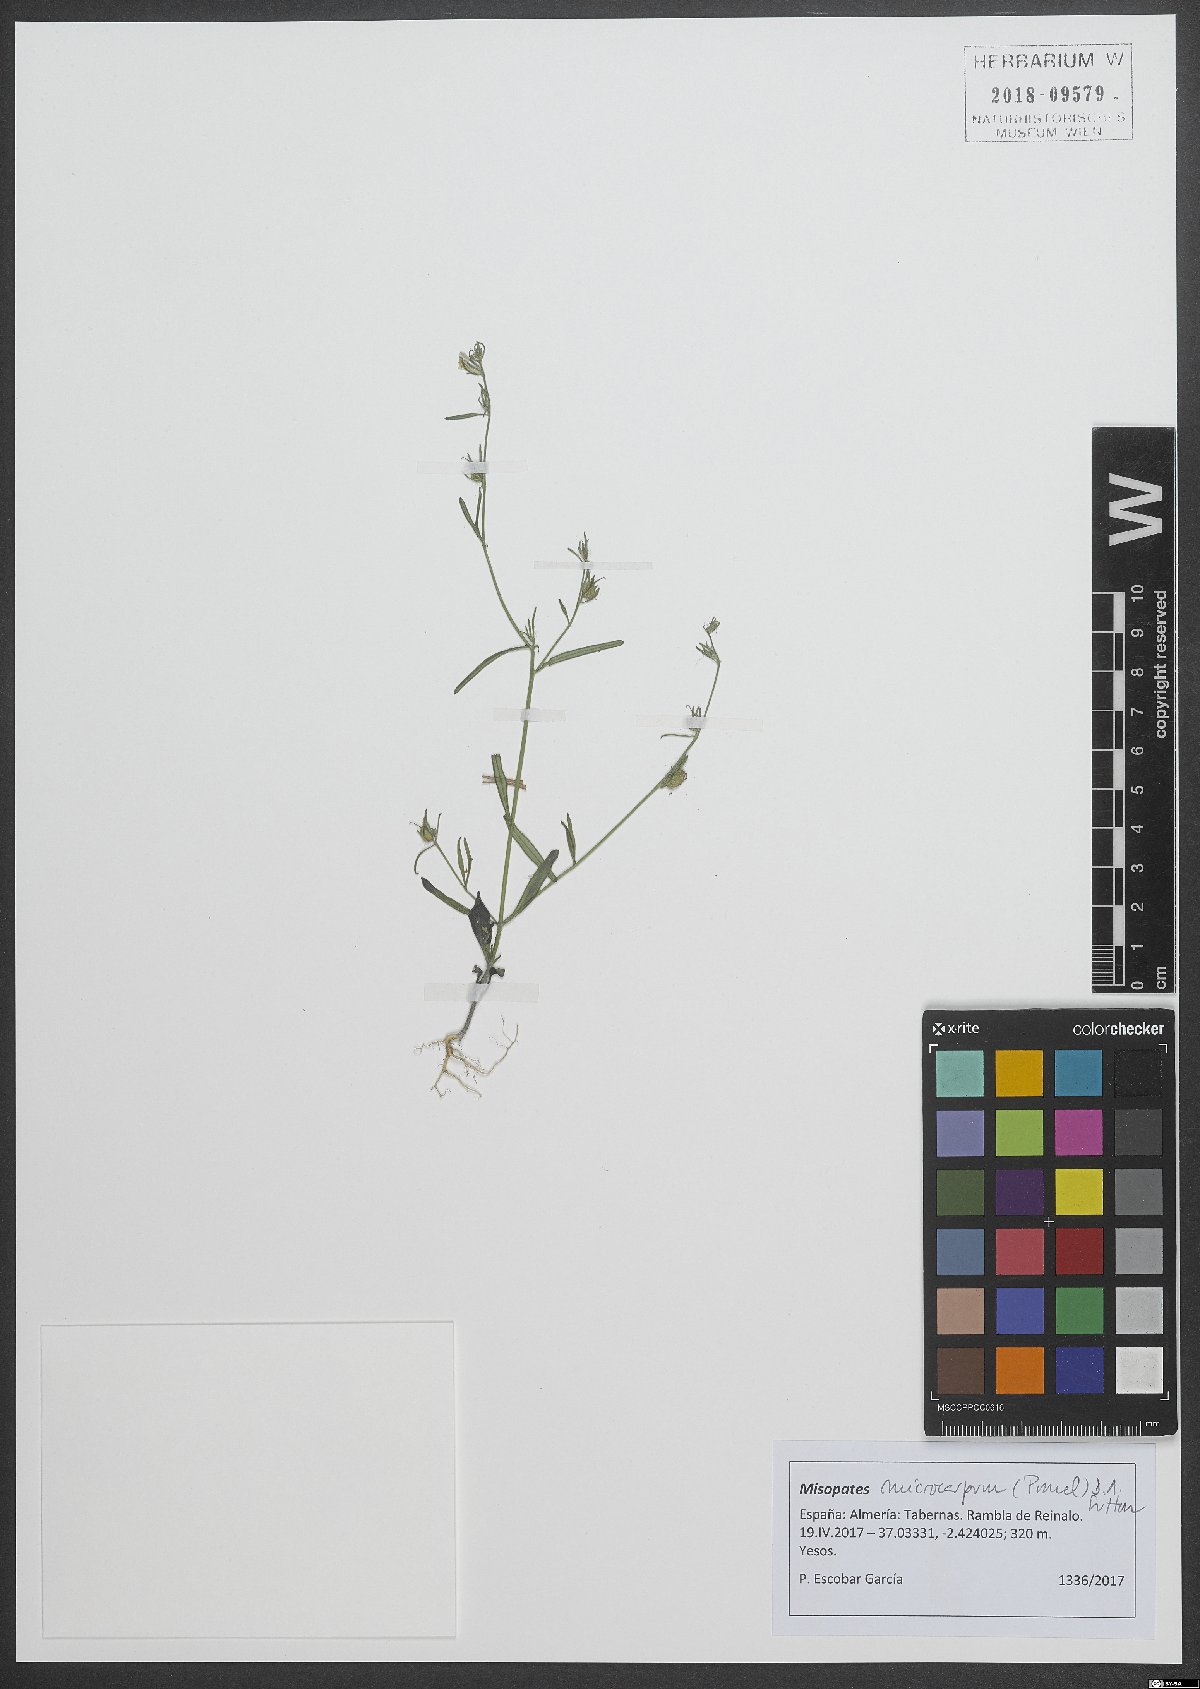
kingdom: Plantae
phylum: Tracheophyta
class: Magnoliopsida
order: Lamiales
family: Plantaginaceae
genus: Misopates
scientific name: Misopates microcarpum
